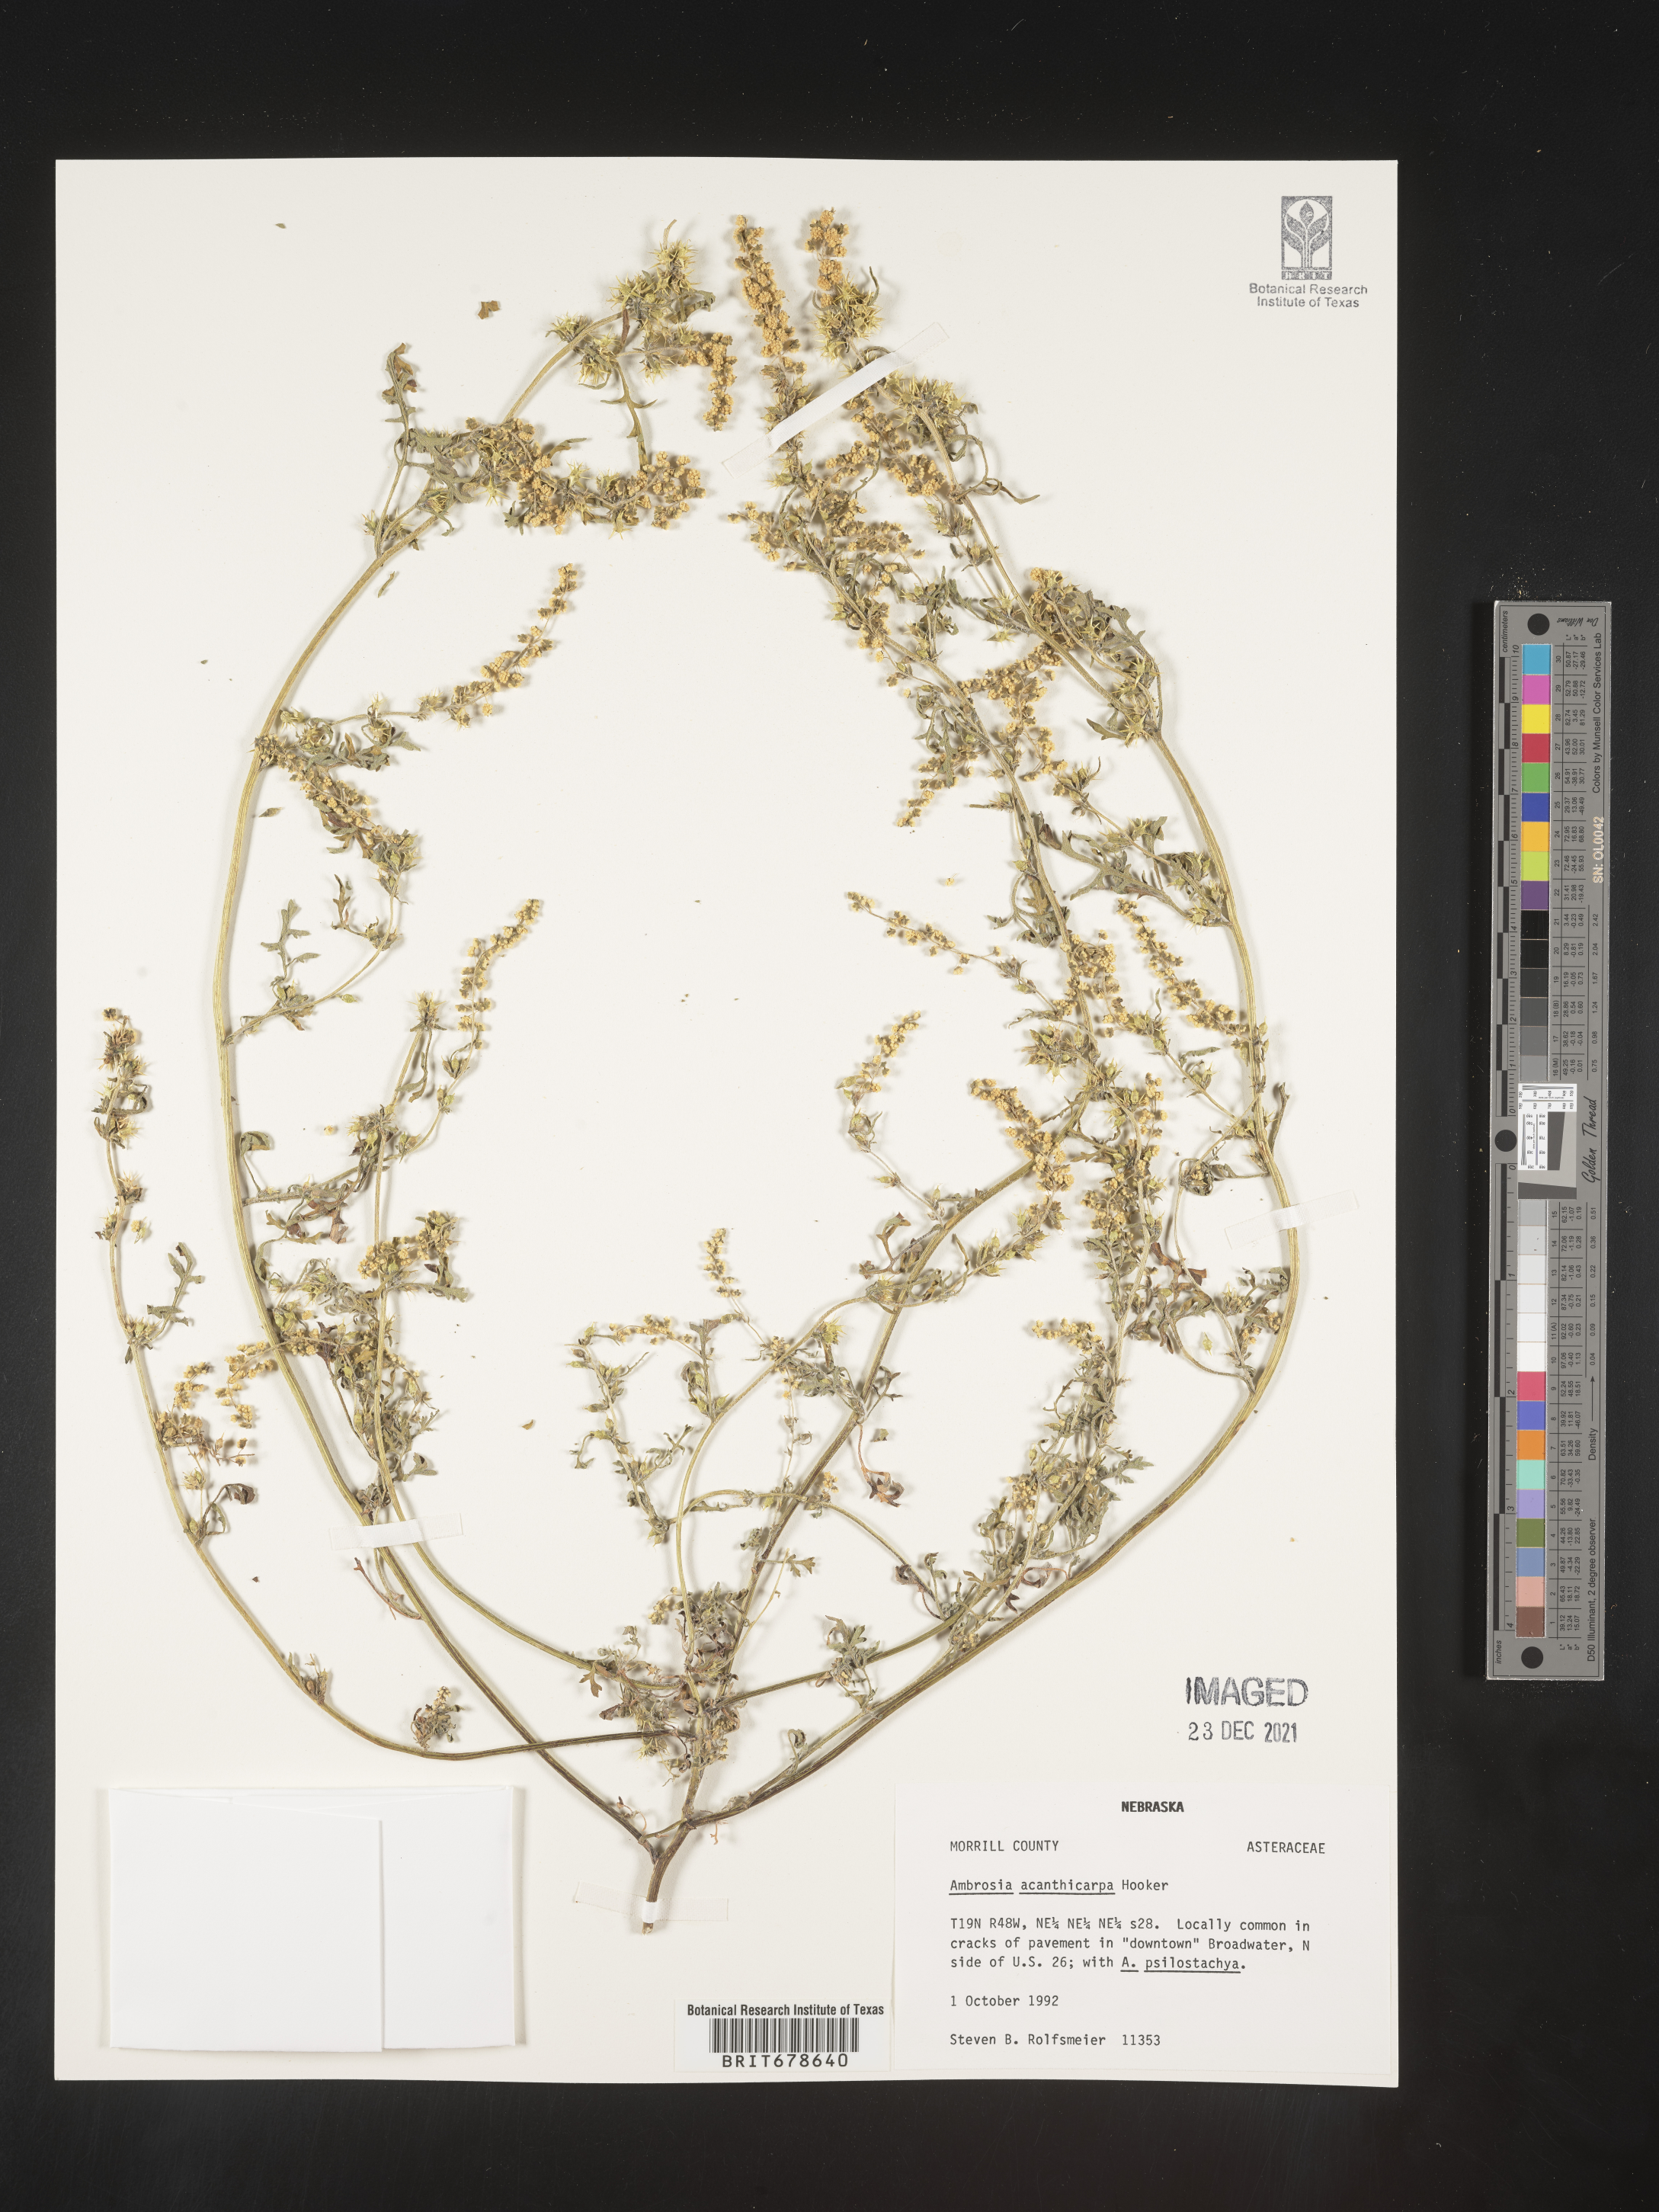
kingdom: Plantae
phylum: Tracheophyta
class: Magnoliopsida
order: Asterales
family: Asteraceae
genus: Ambrosia
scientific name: Ambrosia acanthicarpa
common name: Hooker's bur ragweed
